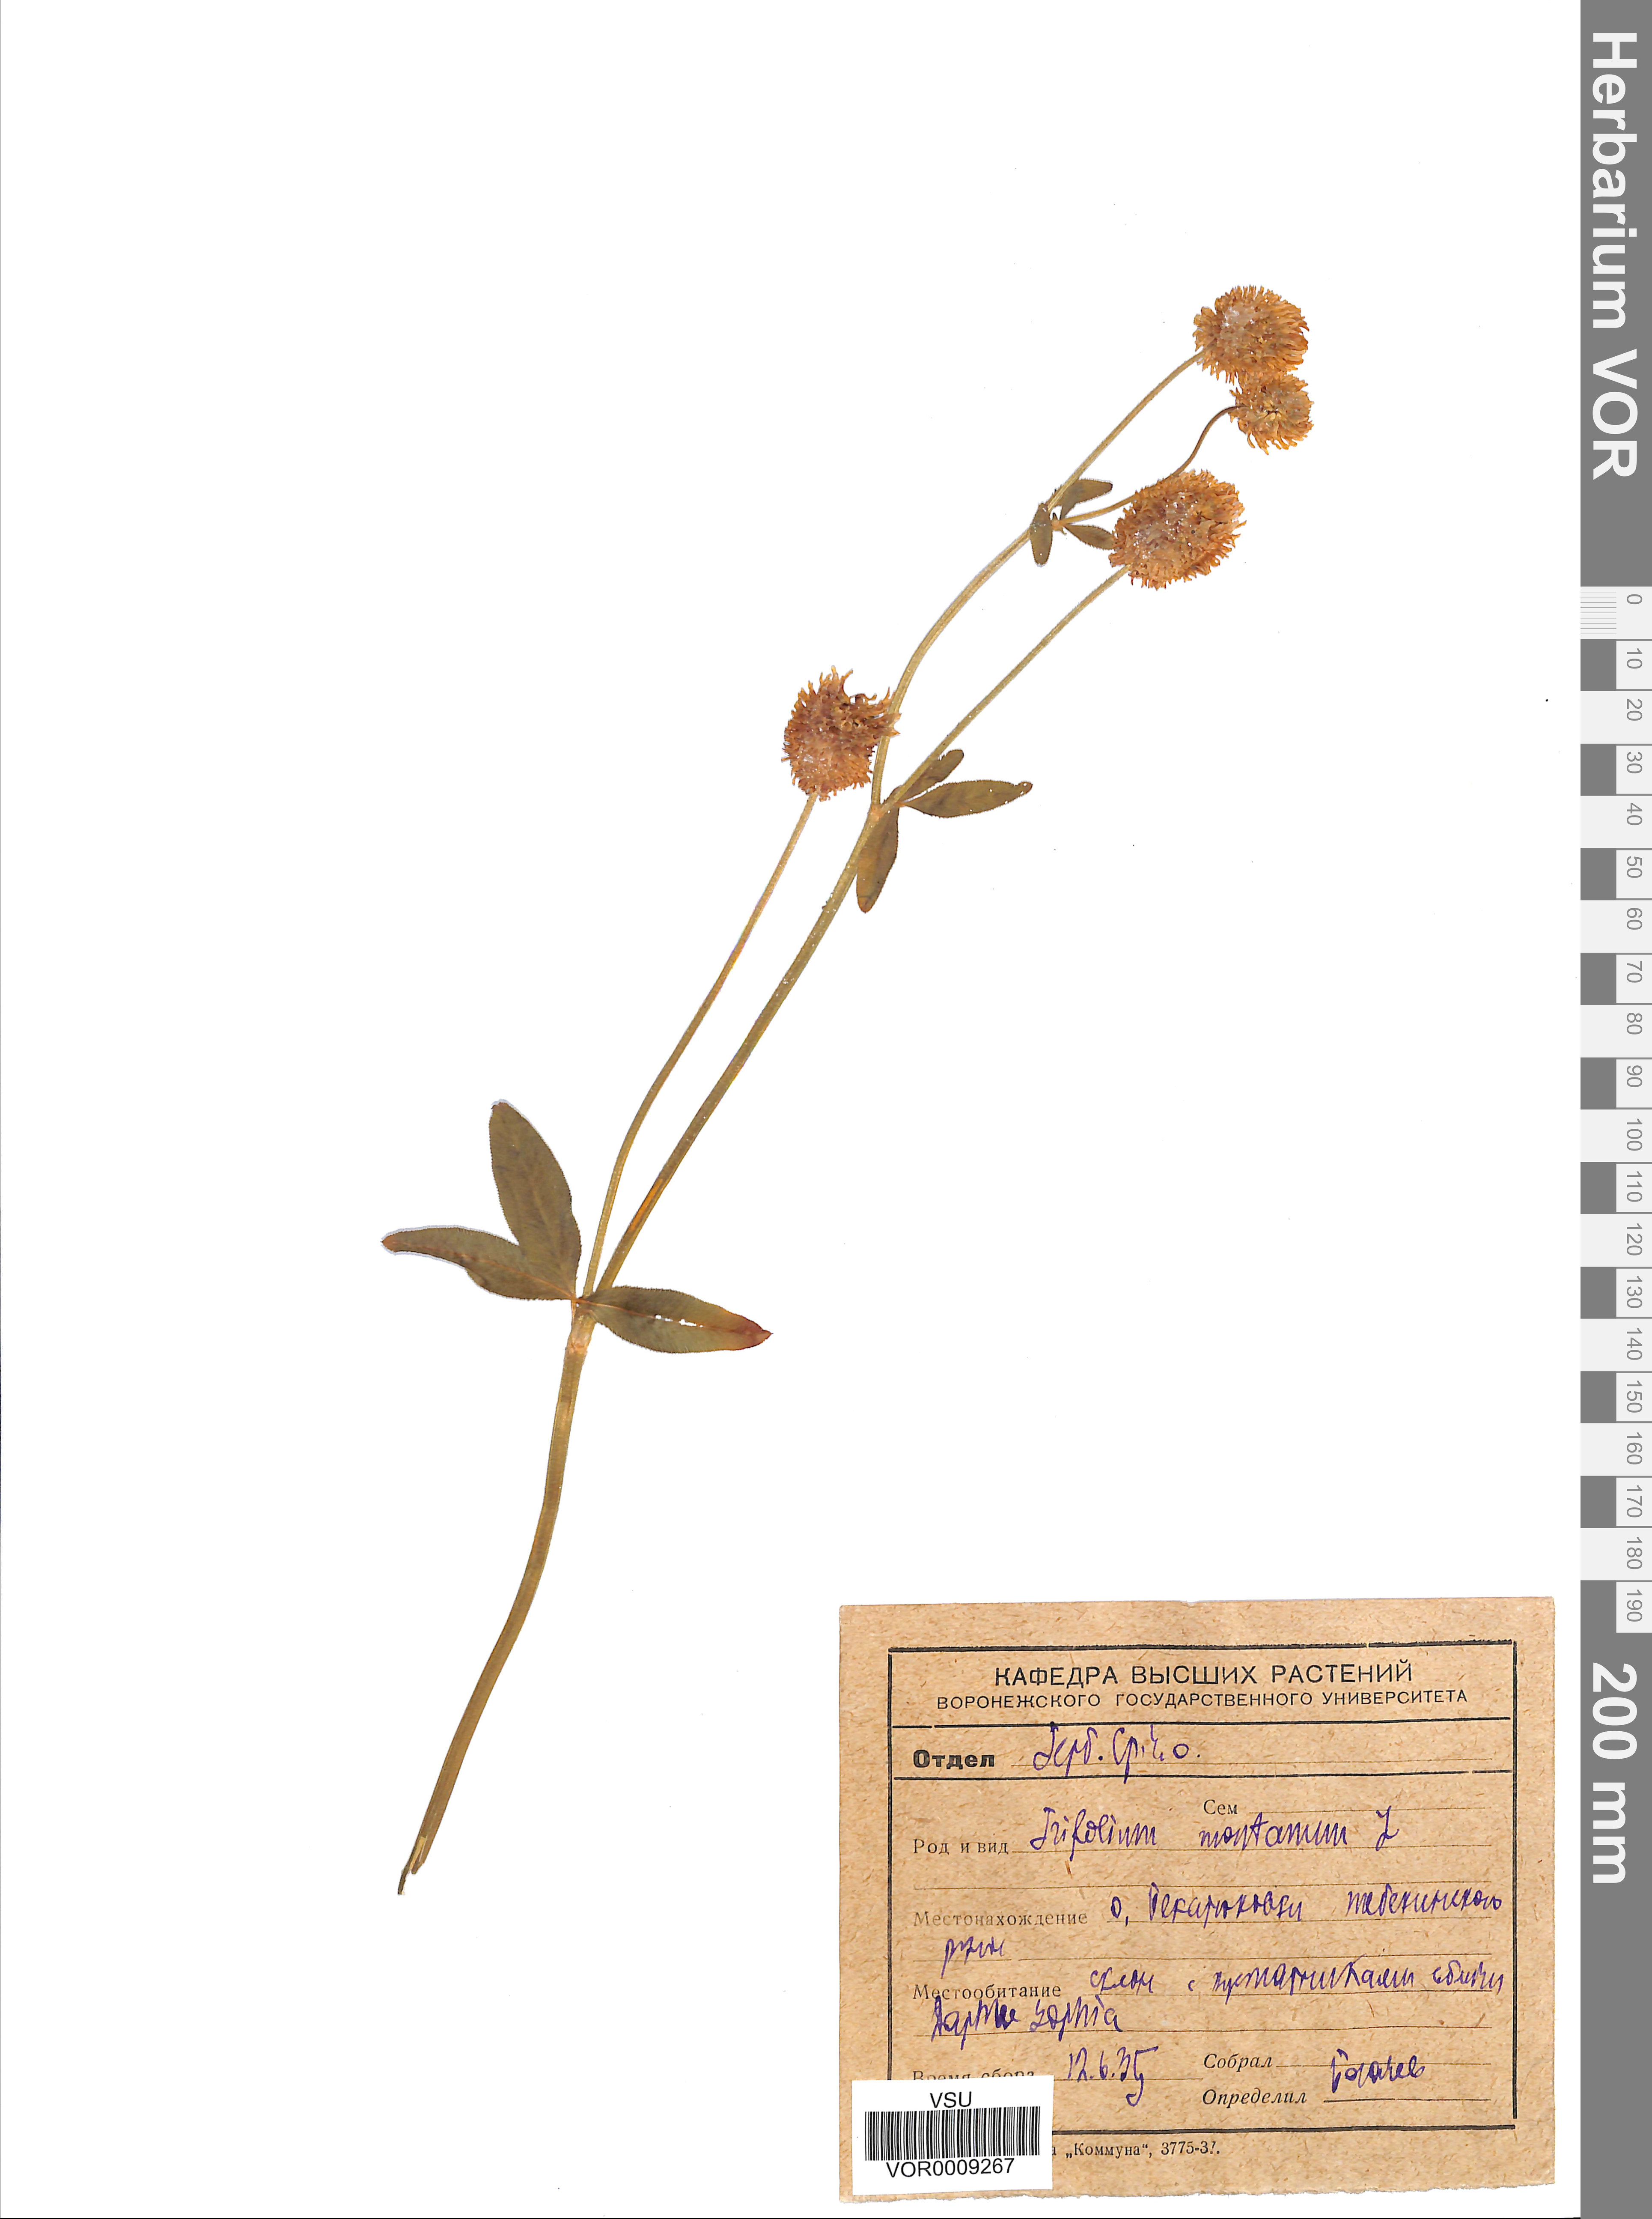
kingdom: Plantae
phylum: Tracheophyta
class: Magnoliopsida
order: Fabales
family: Fabaceae
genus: Trifolium
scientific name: Trifolium montanum
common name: Mountain clover
